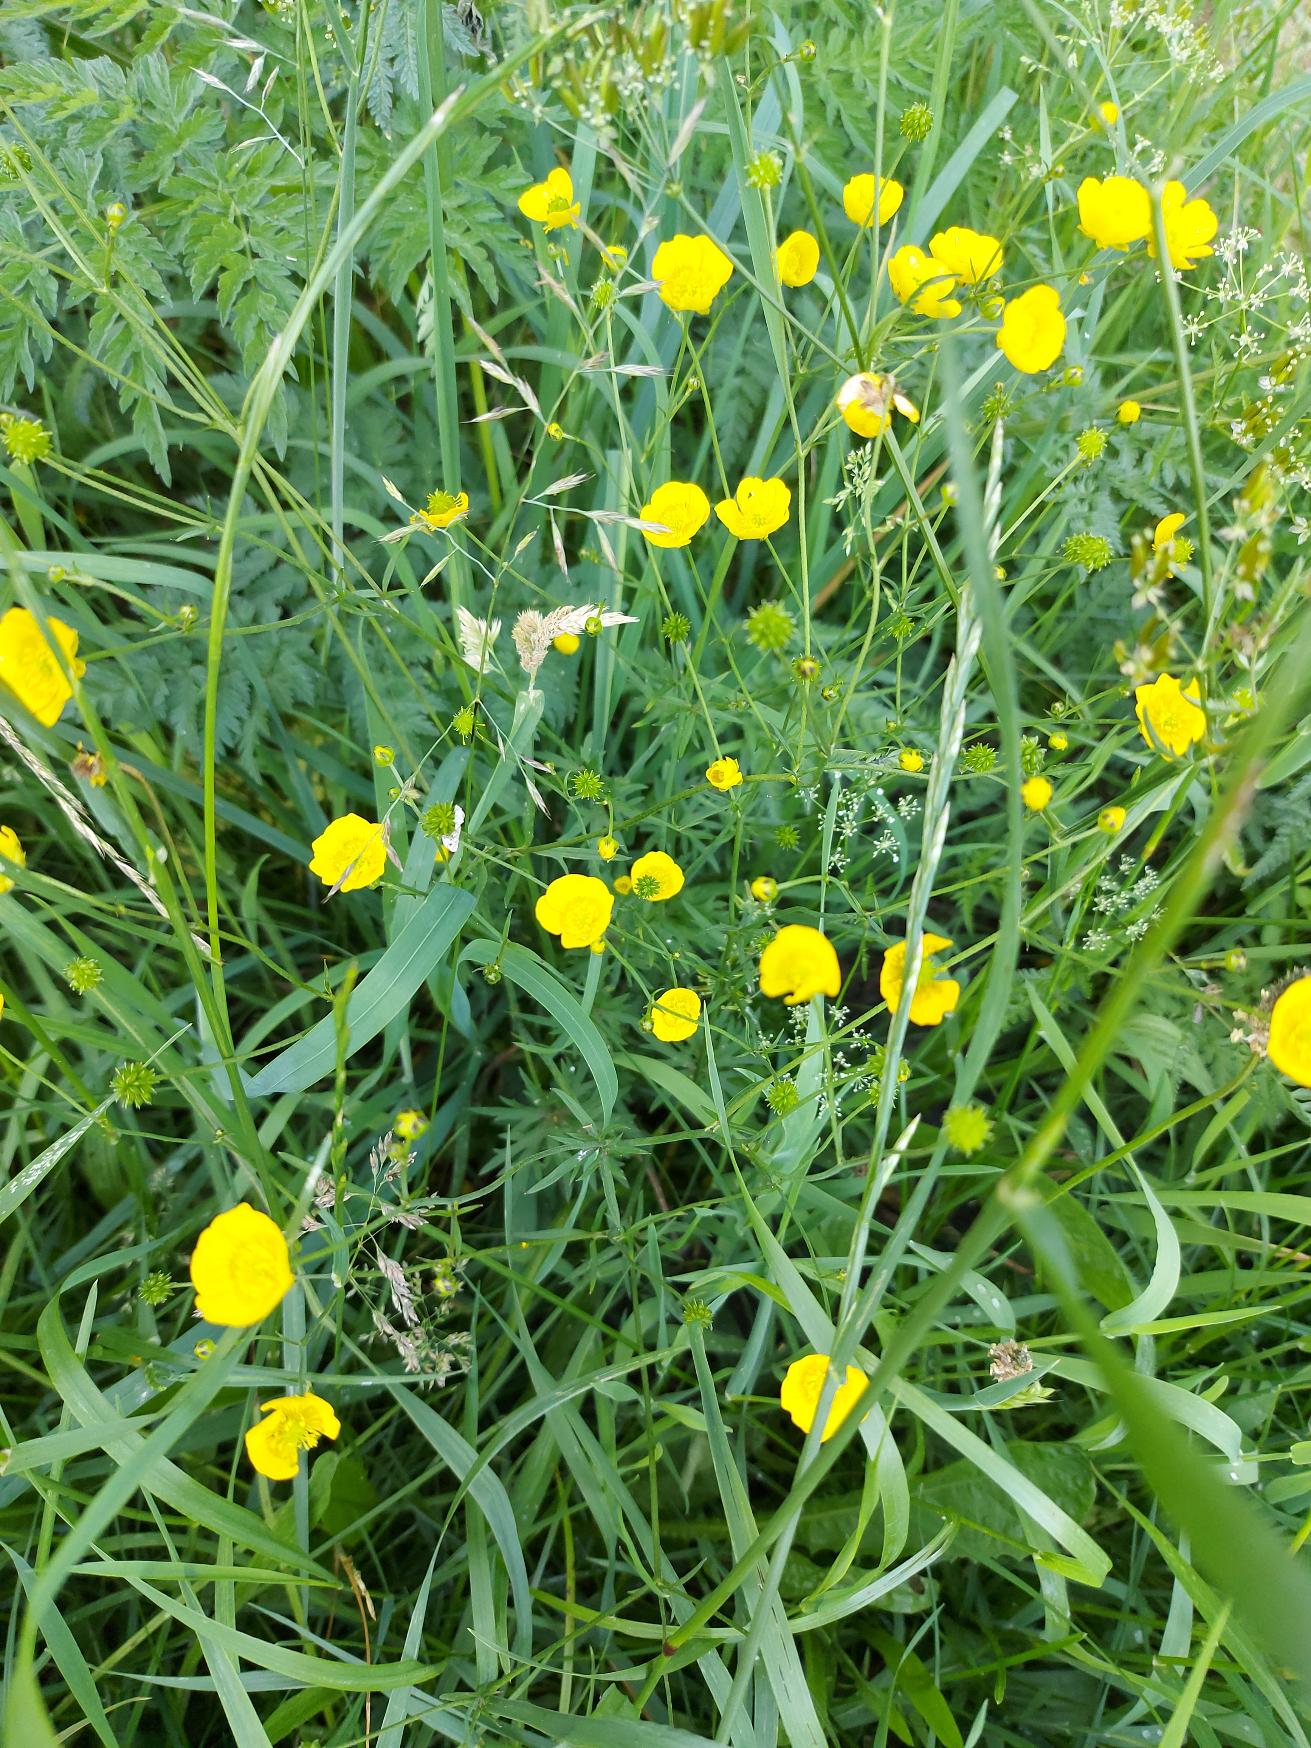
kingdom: Plantae
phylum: Tracheophyta
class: Magnoliopsida
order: Ranunculales
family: Ranunculaceae
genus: Ranunculus
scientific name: Ranunculus acris
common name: Bidende ranunkel
